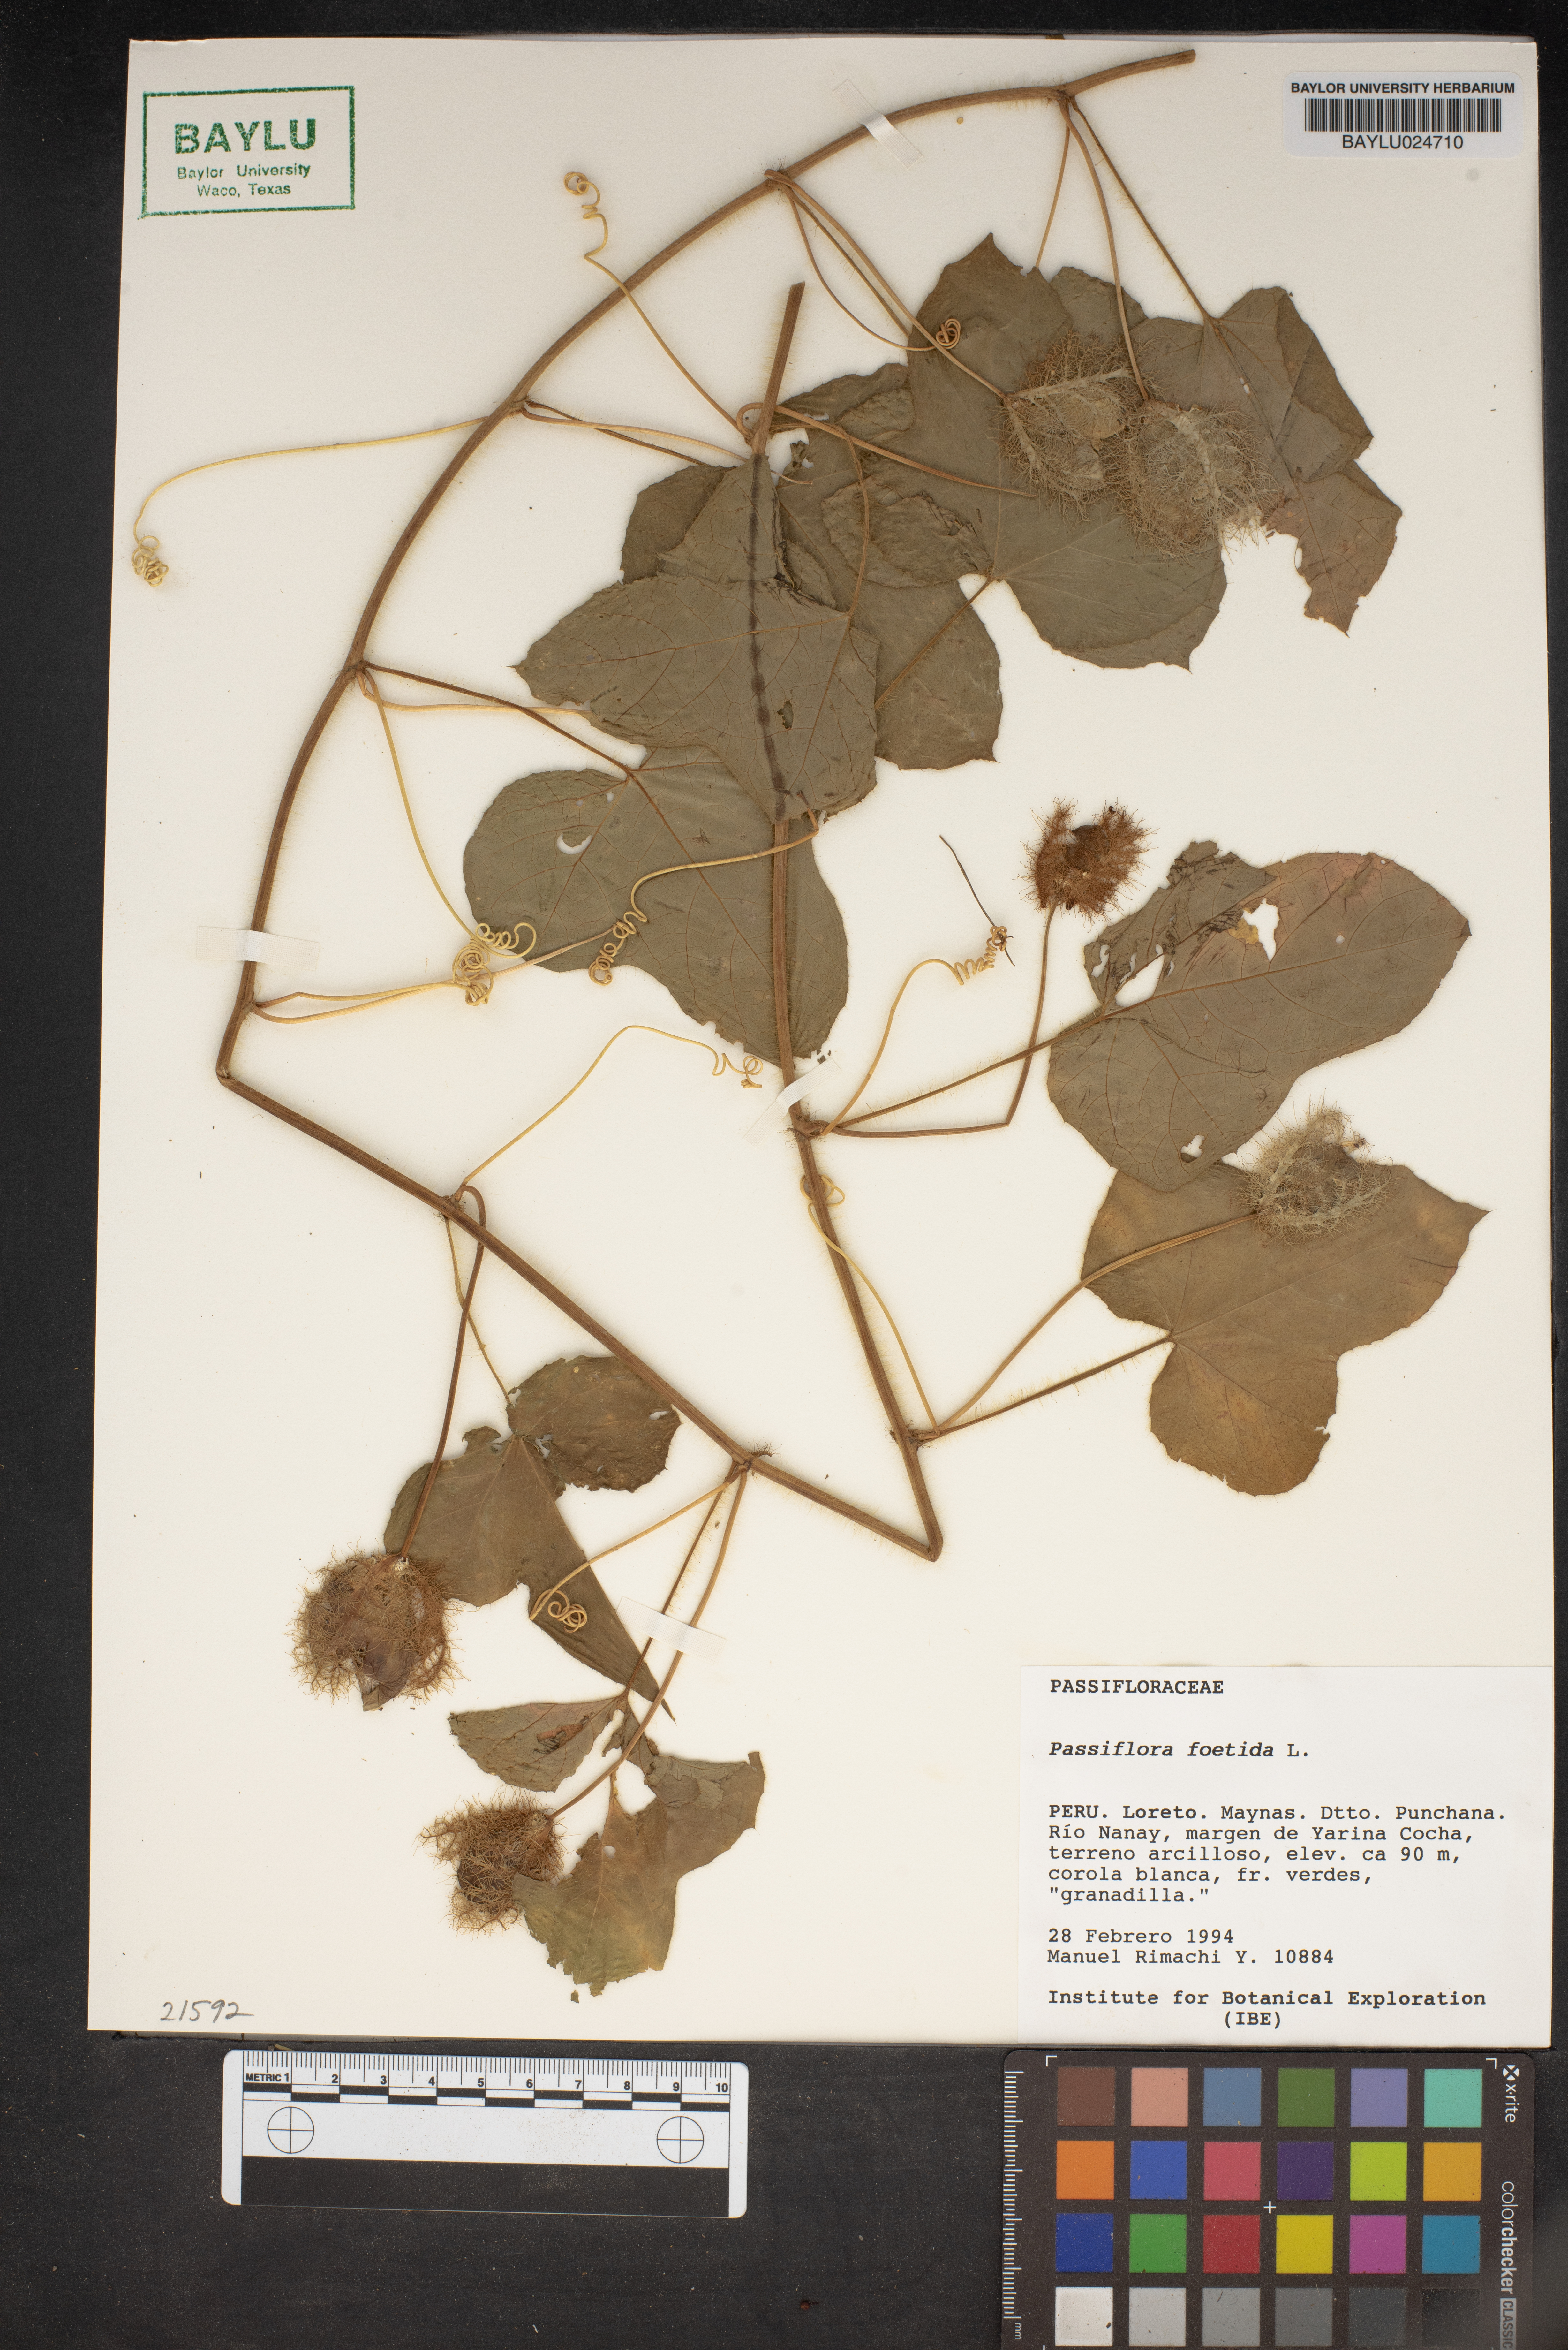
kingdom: Plantae
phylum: Tracheophyta
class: Magnoliopsida
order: Malpighiales
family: Passifloraceae
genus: Passiflora
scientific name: Passiflora foetida
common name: Fetid passionflower
